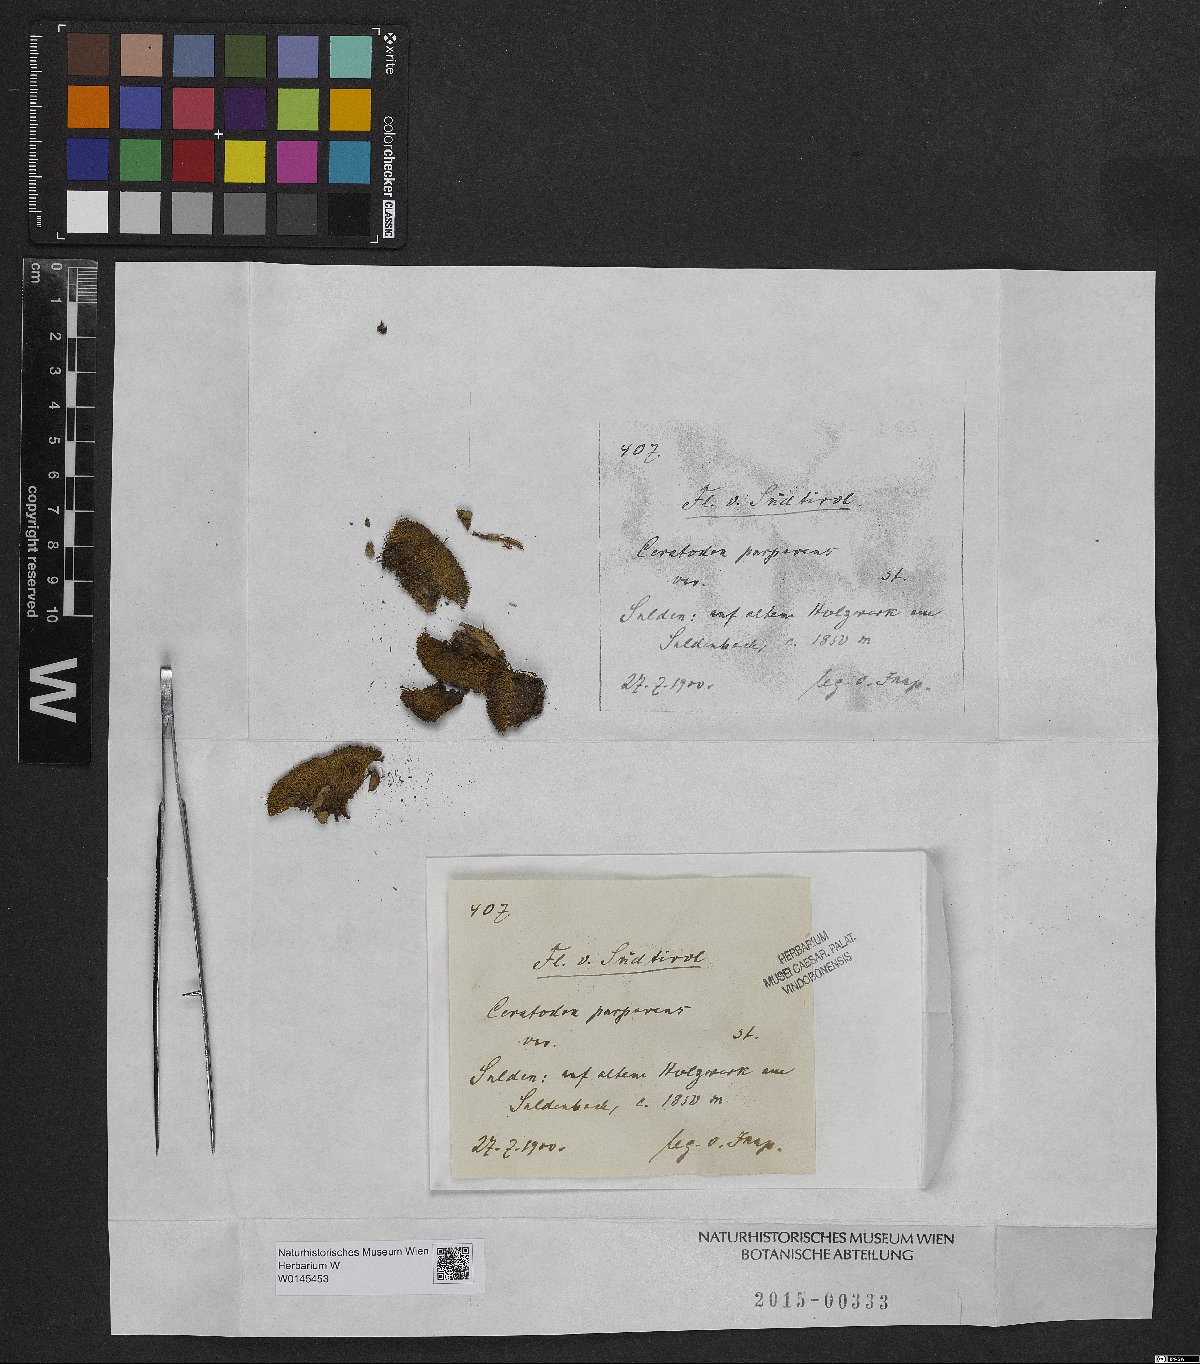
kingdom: Plantae
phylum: Bryophyta
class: Bryopsida
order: Dicranales
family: Ditrichaceae
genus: Ceratodon
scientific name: Ceratodon purpureus
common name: Redshank
